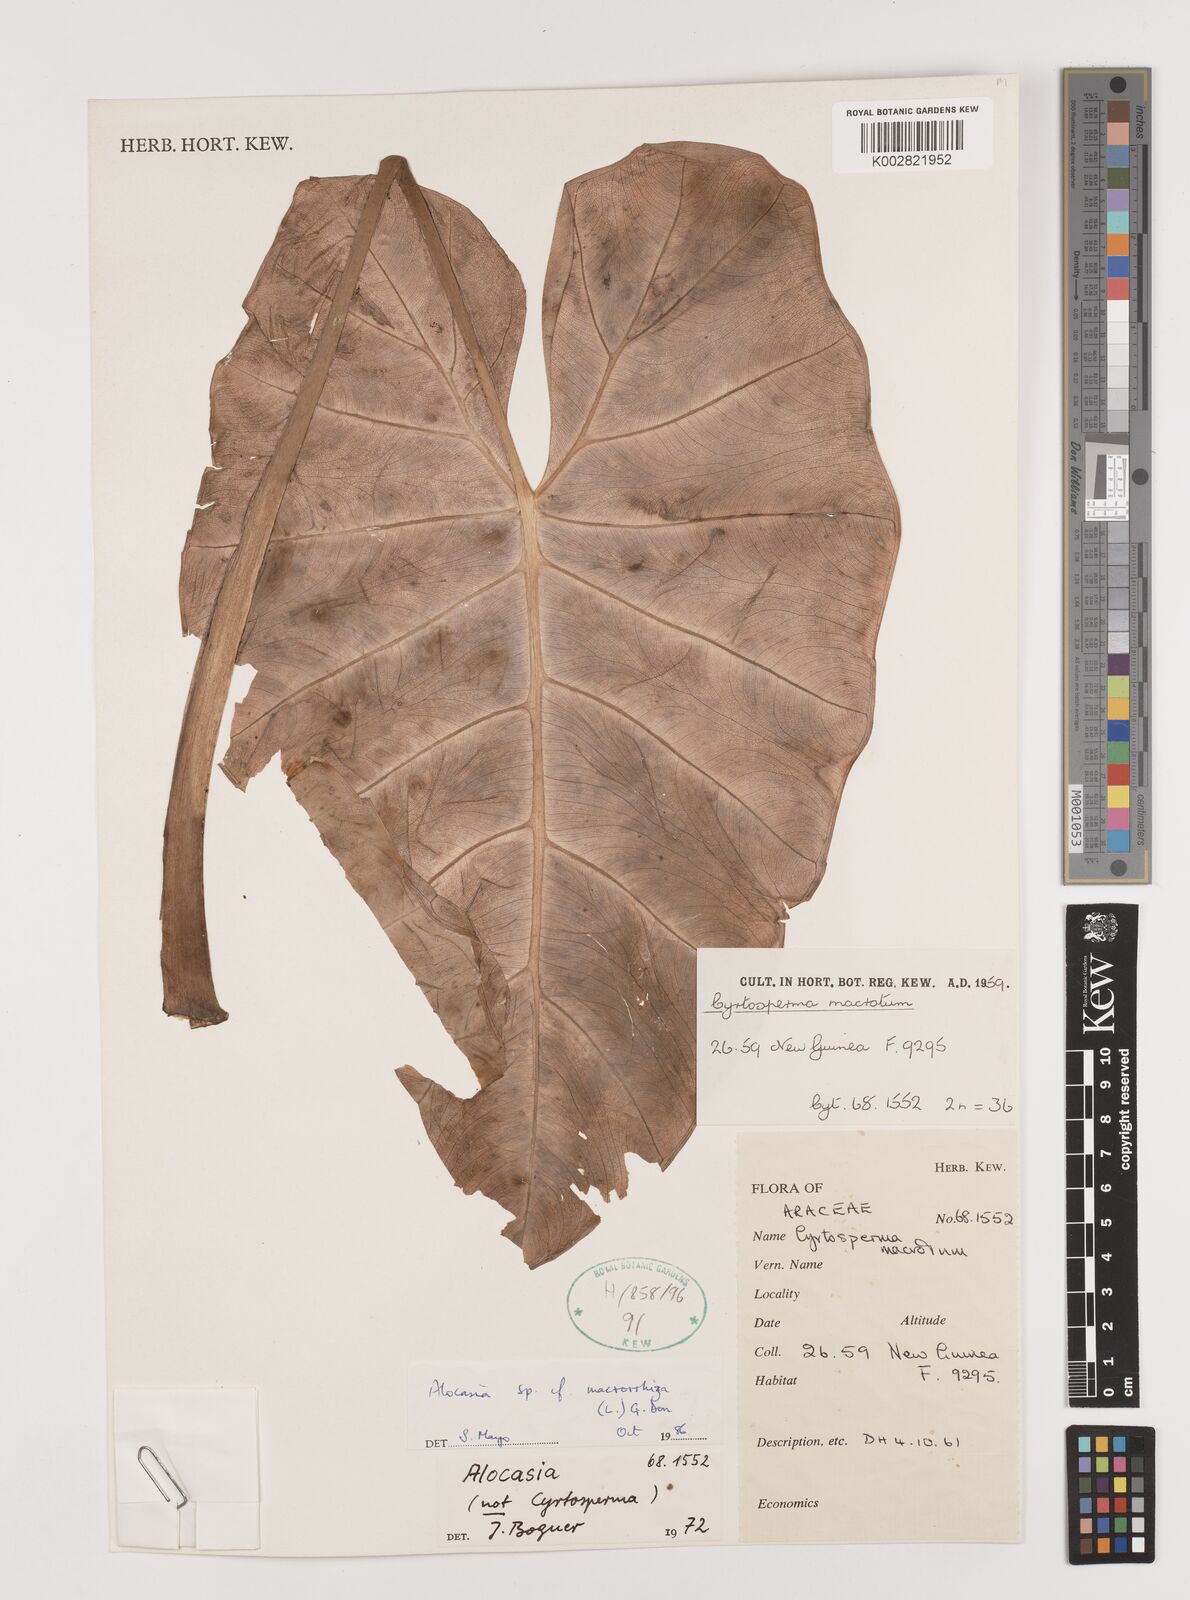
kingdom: Plantae
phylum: Tracheophyta
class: Liliopsida
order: Alismatales
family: Araceae
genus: Alocasia
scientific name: Alocasia macrorrhizos
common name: Giant taro
